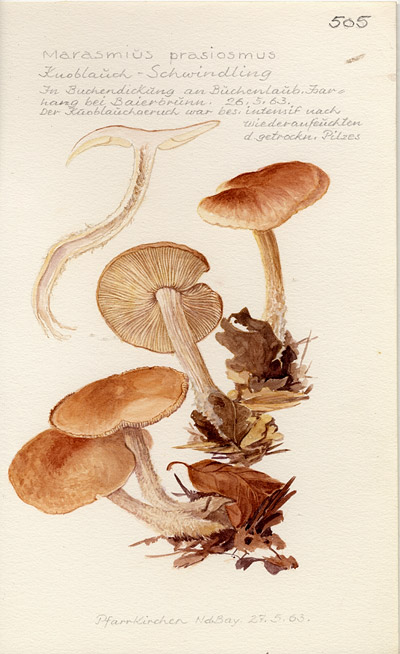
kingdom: Fungi
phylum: Basidiomycota
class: Agaricomycetes
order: Agaricales
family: Omphalotaceae
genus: Mycetinis
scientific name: Mycetinis prasiosmus
